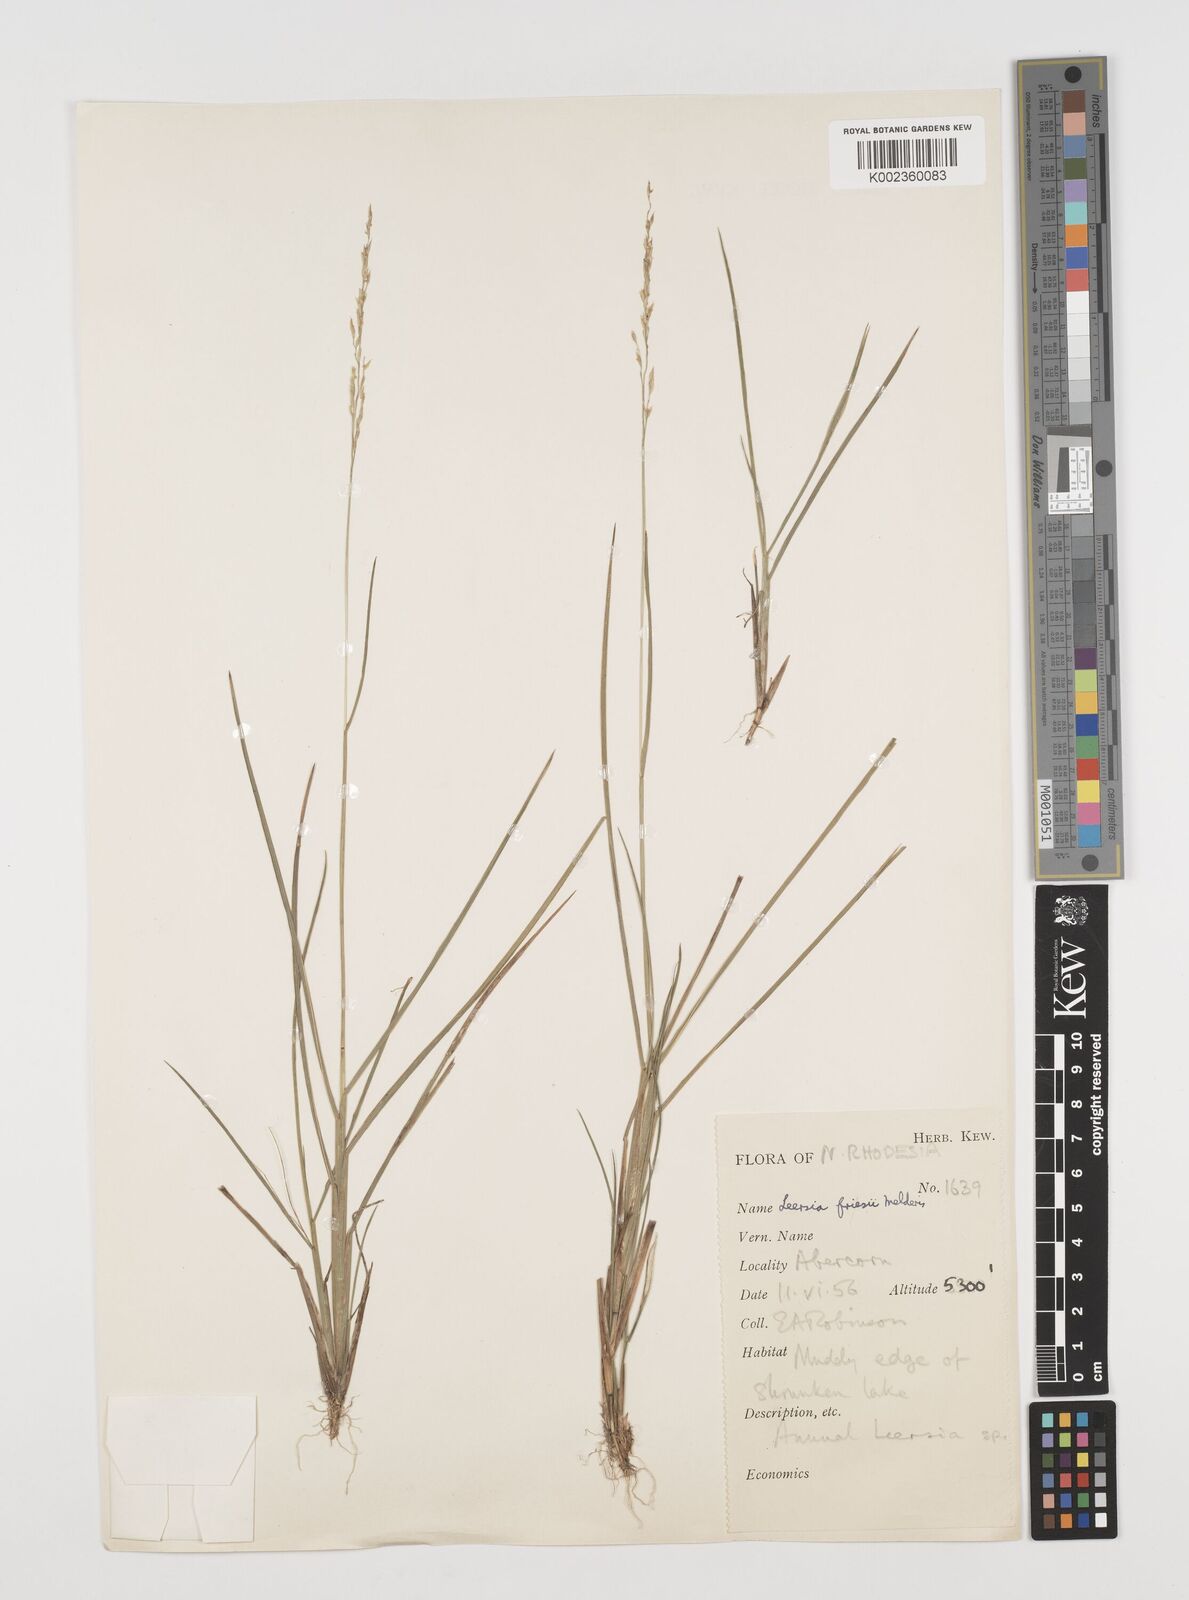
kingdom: Plantae
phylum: Tracheophyta
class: Liliopsida
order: Poales
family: Poaceae
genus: Leersia
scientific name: Leersia friesii
